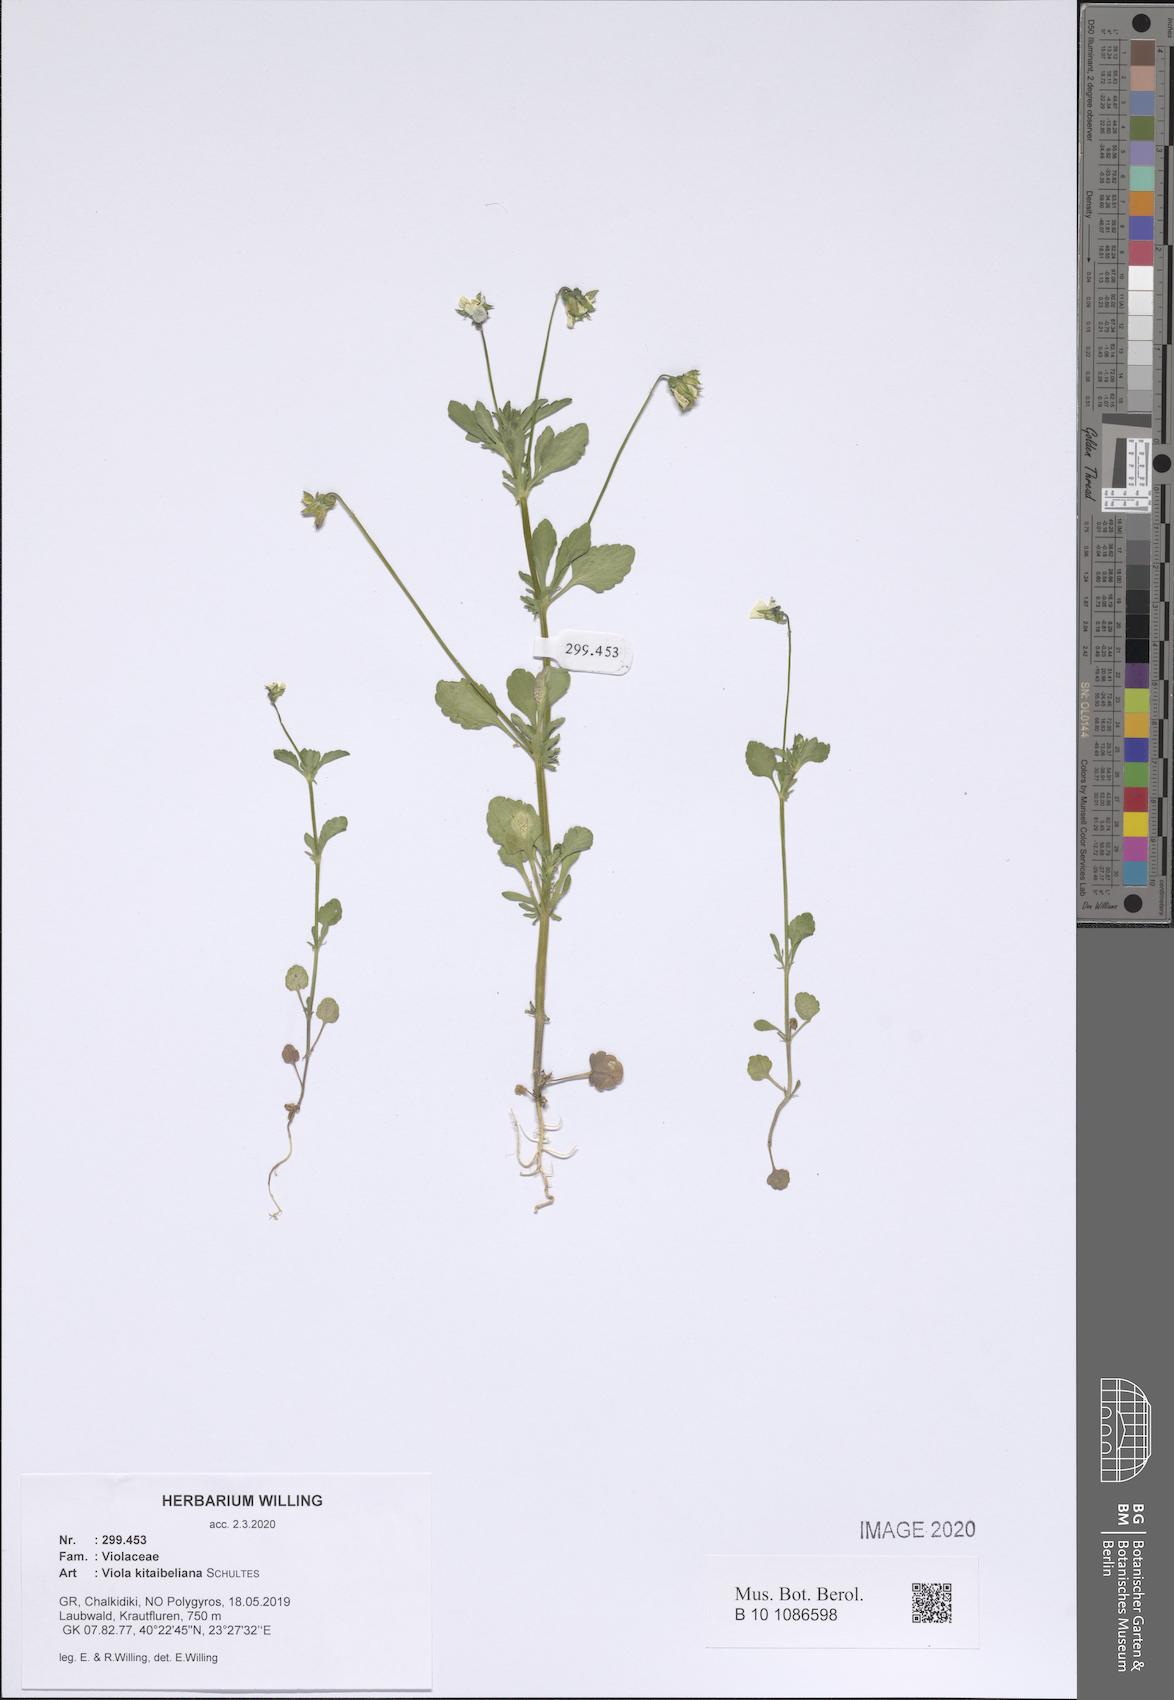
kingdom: Plantae
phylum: Tracheophyta
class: Magnoliopsida
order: Malpighiales
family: Violaceae
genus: Viola
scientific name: Viola kitaibeliana
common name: Dwarf pansy
